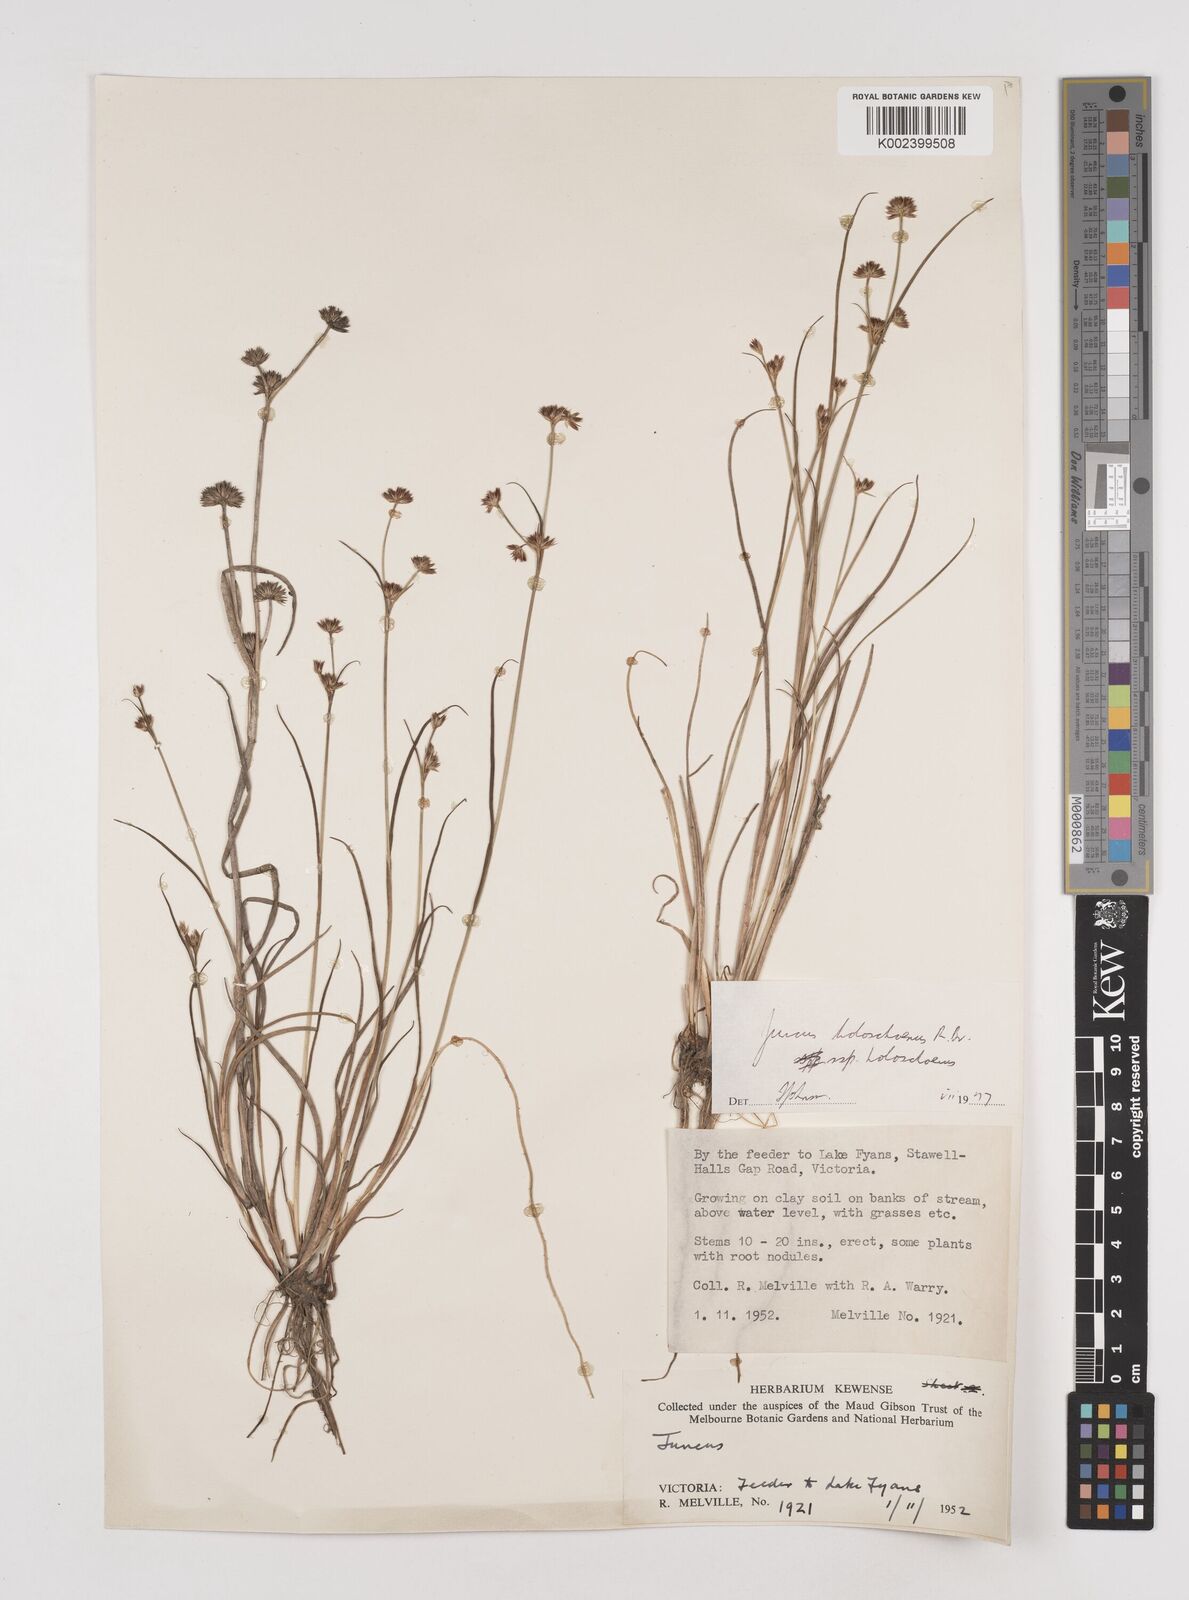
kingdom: Plantae
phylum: Tracheophyta
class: Liliopsida
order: Poales
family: Juncaceae
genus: Juncus
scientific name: Juncus holoschoenus
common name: Joint-leaf rush
